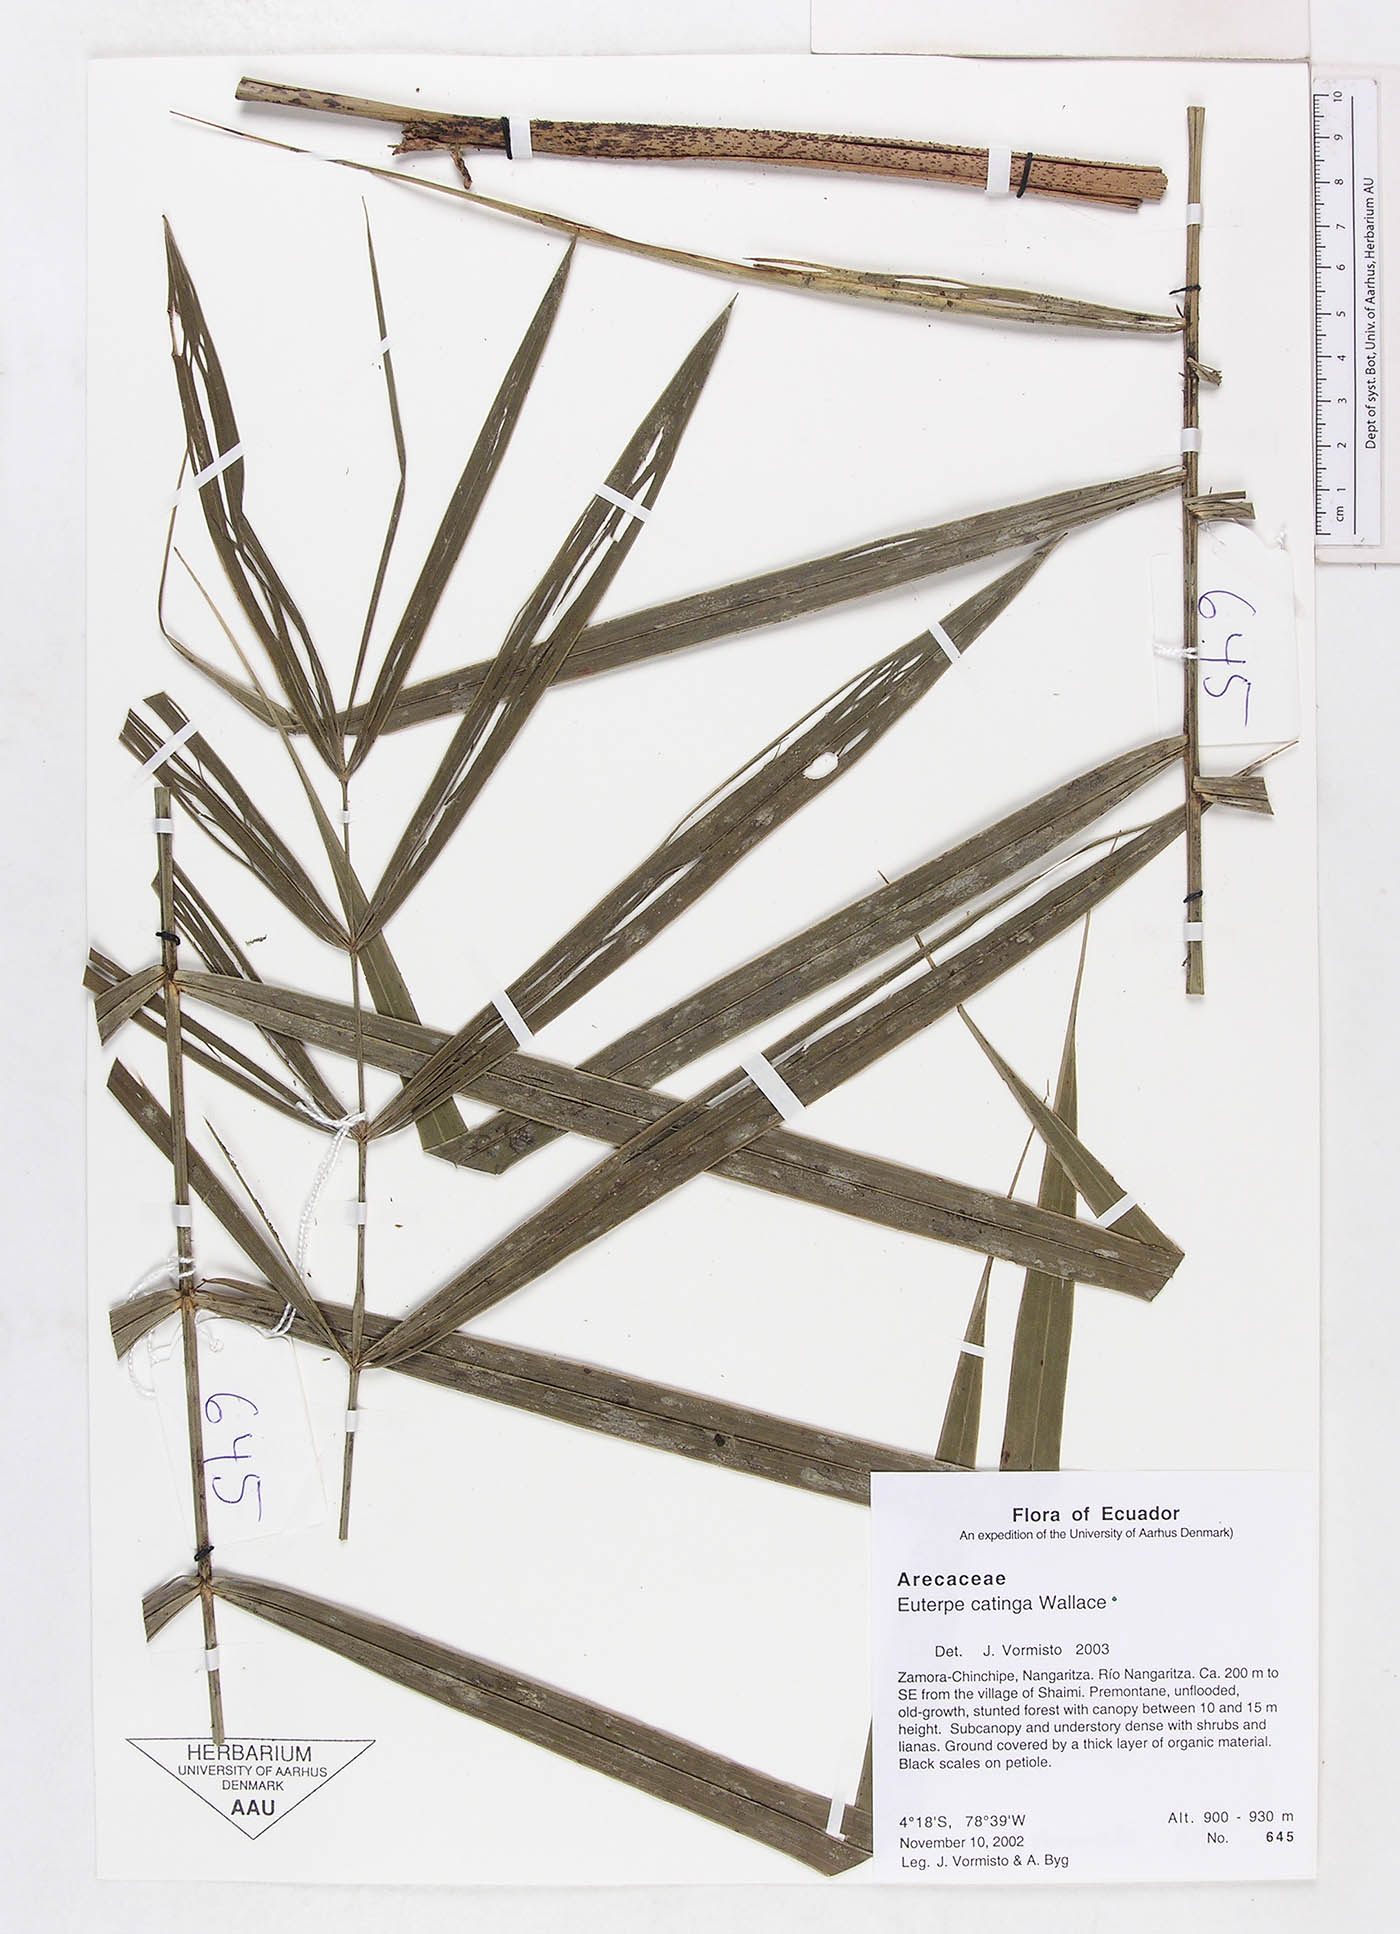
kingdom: Plantae
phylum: Tracheophyta
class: Liliopsida
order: Arecales
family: Arecaceae
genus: Euterpe
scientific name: Euterpe catinga
